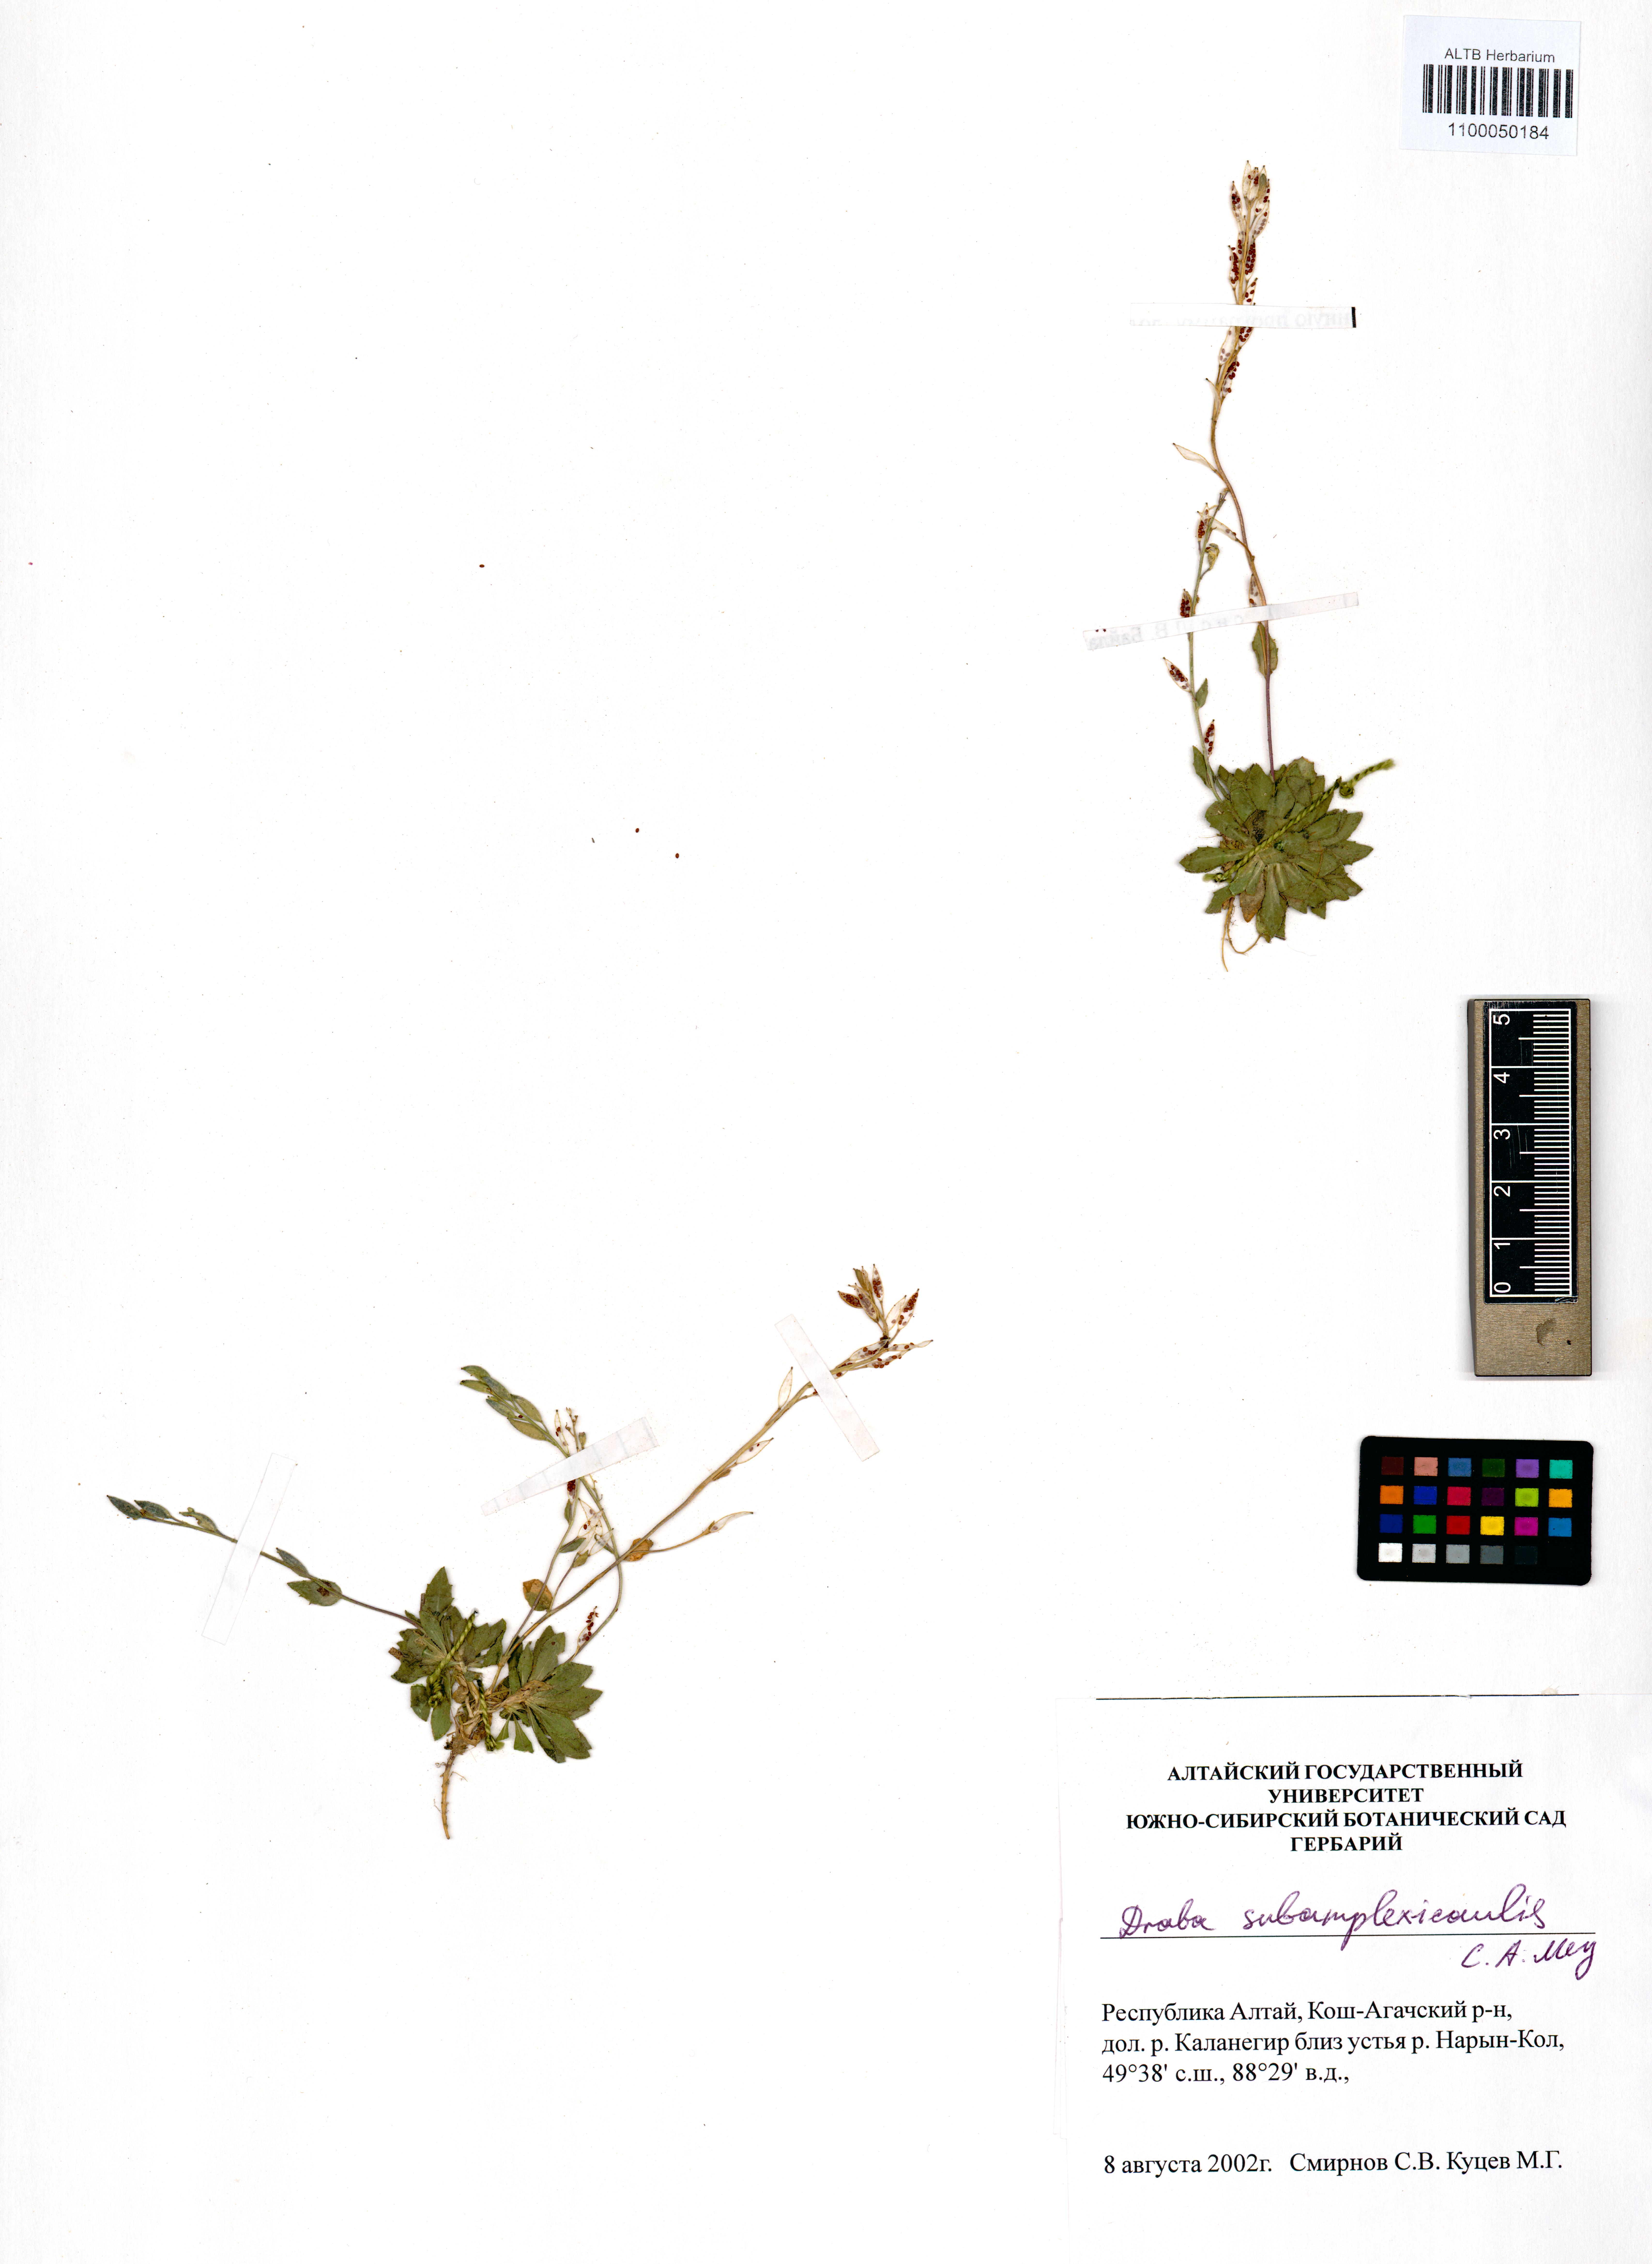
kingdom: Plantae
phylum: Tracheophyta
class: Magnoliopsida
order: Brassicales
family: Brassicaceae
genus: Draba
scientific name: Draba subamplexicaulis
